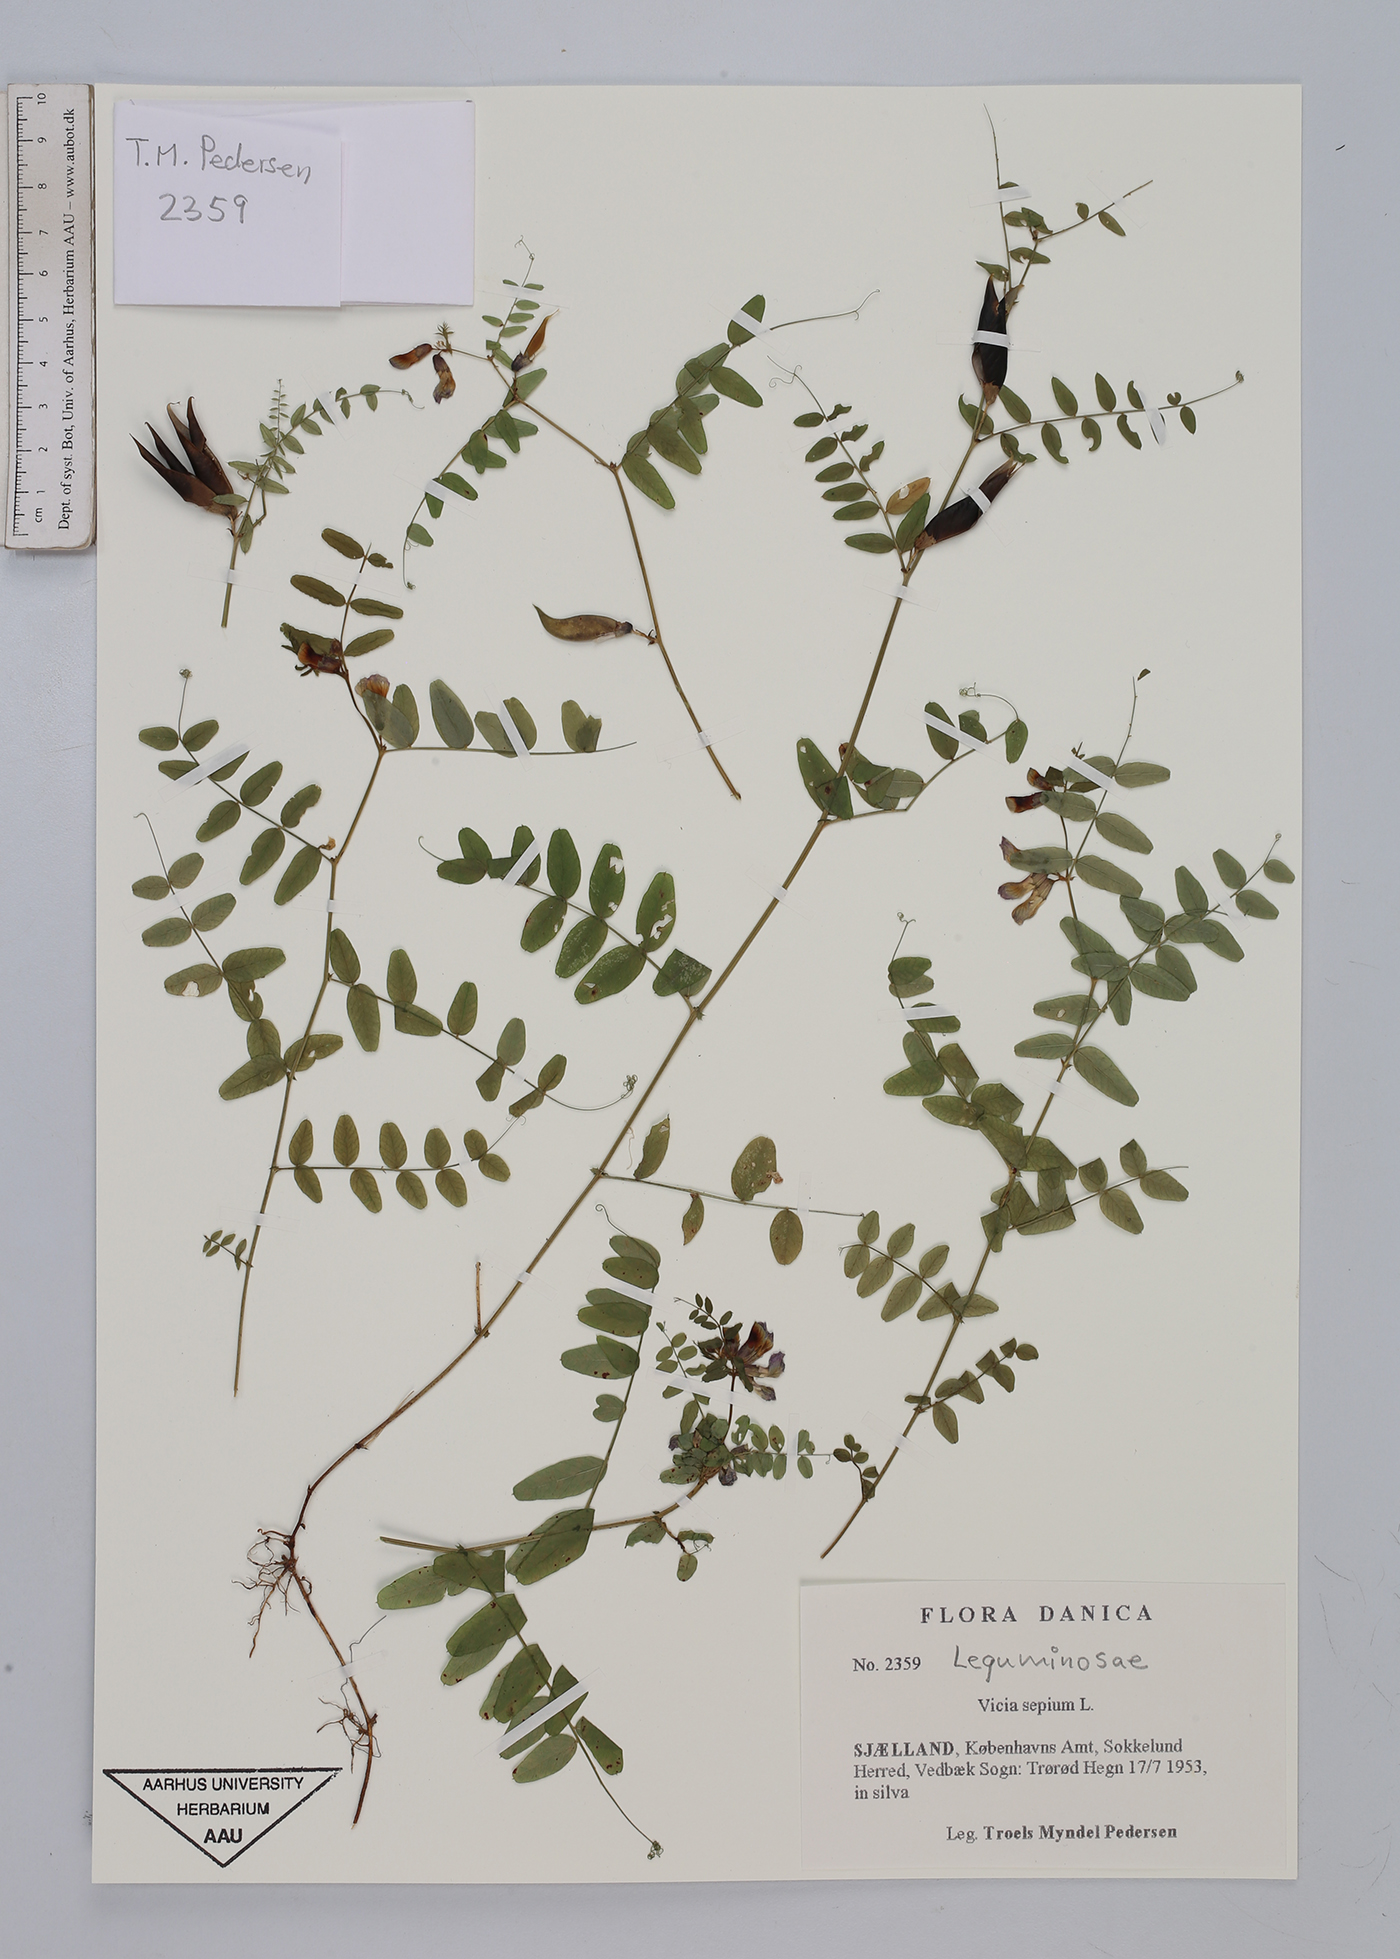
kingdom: Plantae
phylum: Tracheophyta
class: Magnoliopsida
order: Fabales
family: Fabaceae
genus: Vicia
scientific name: Vicia sepium
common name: Bush vetch
